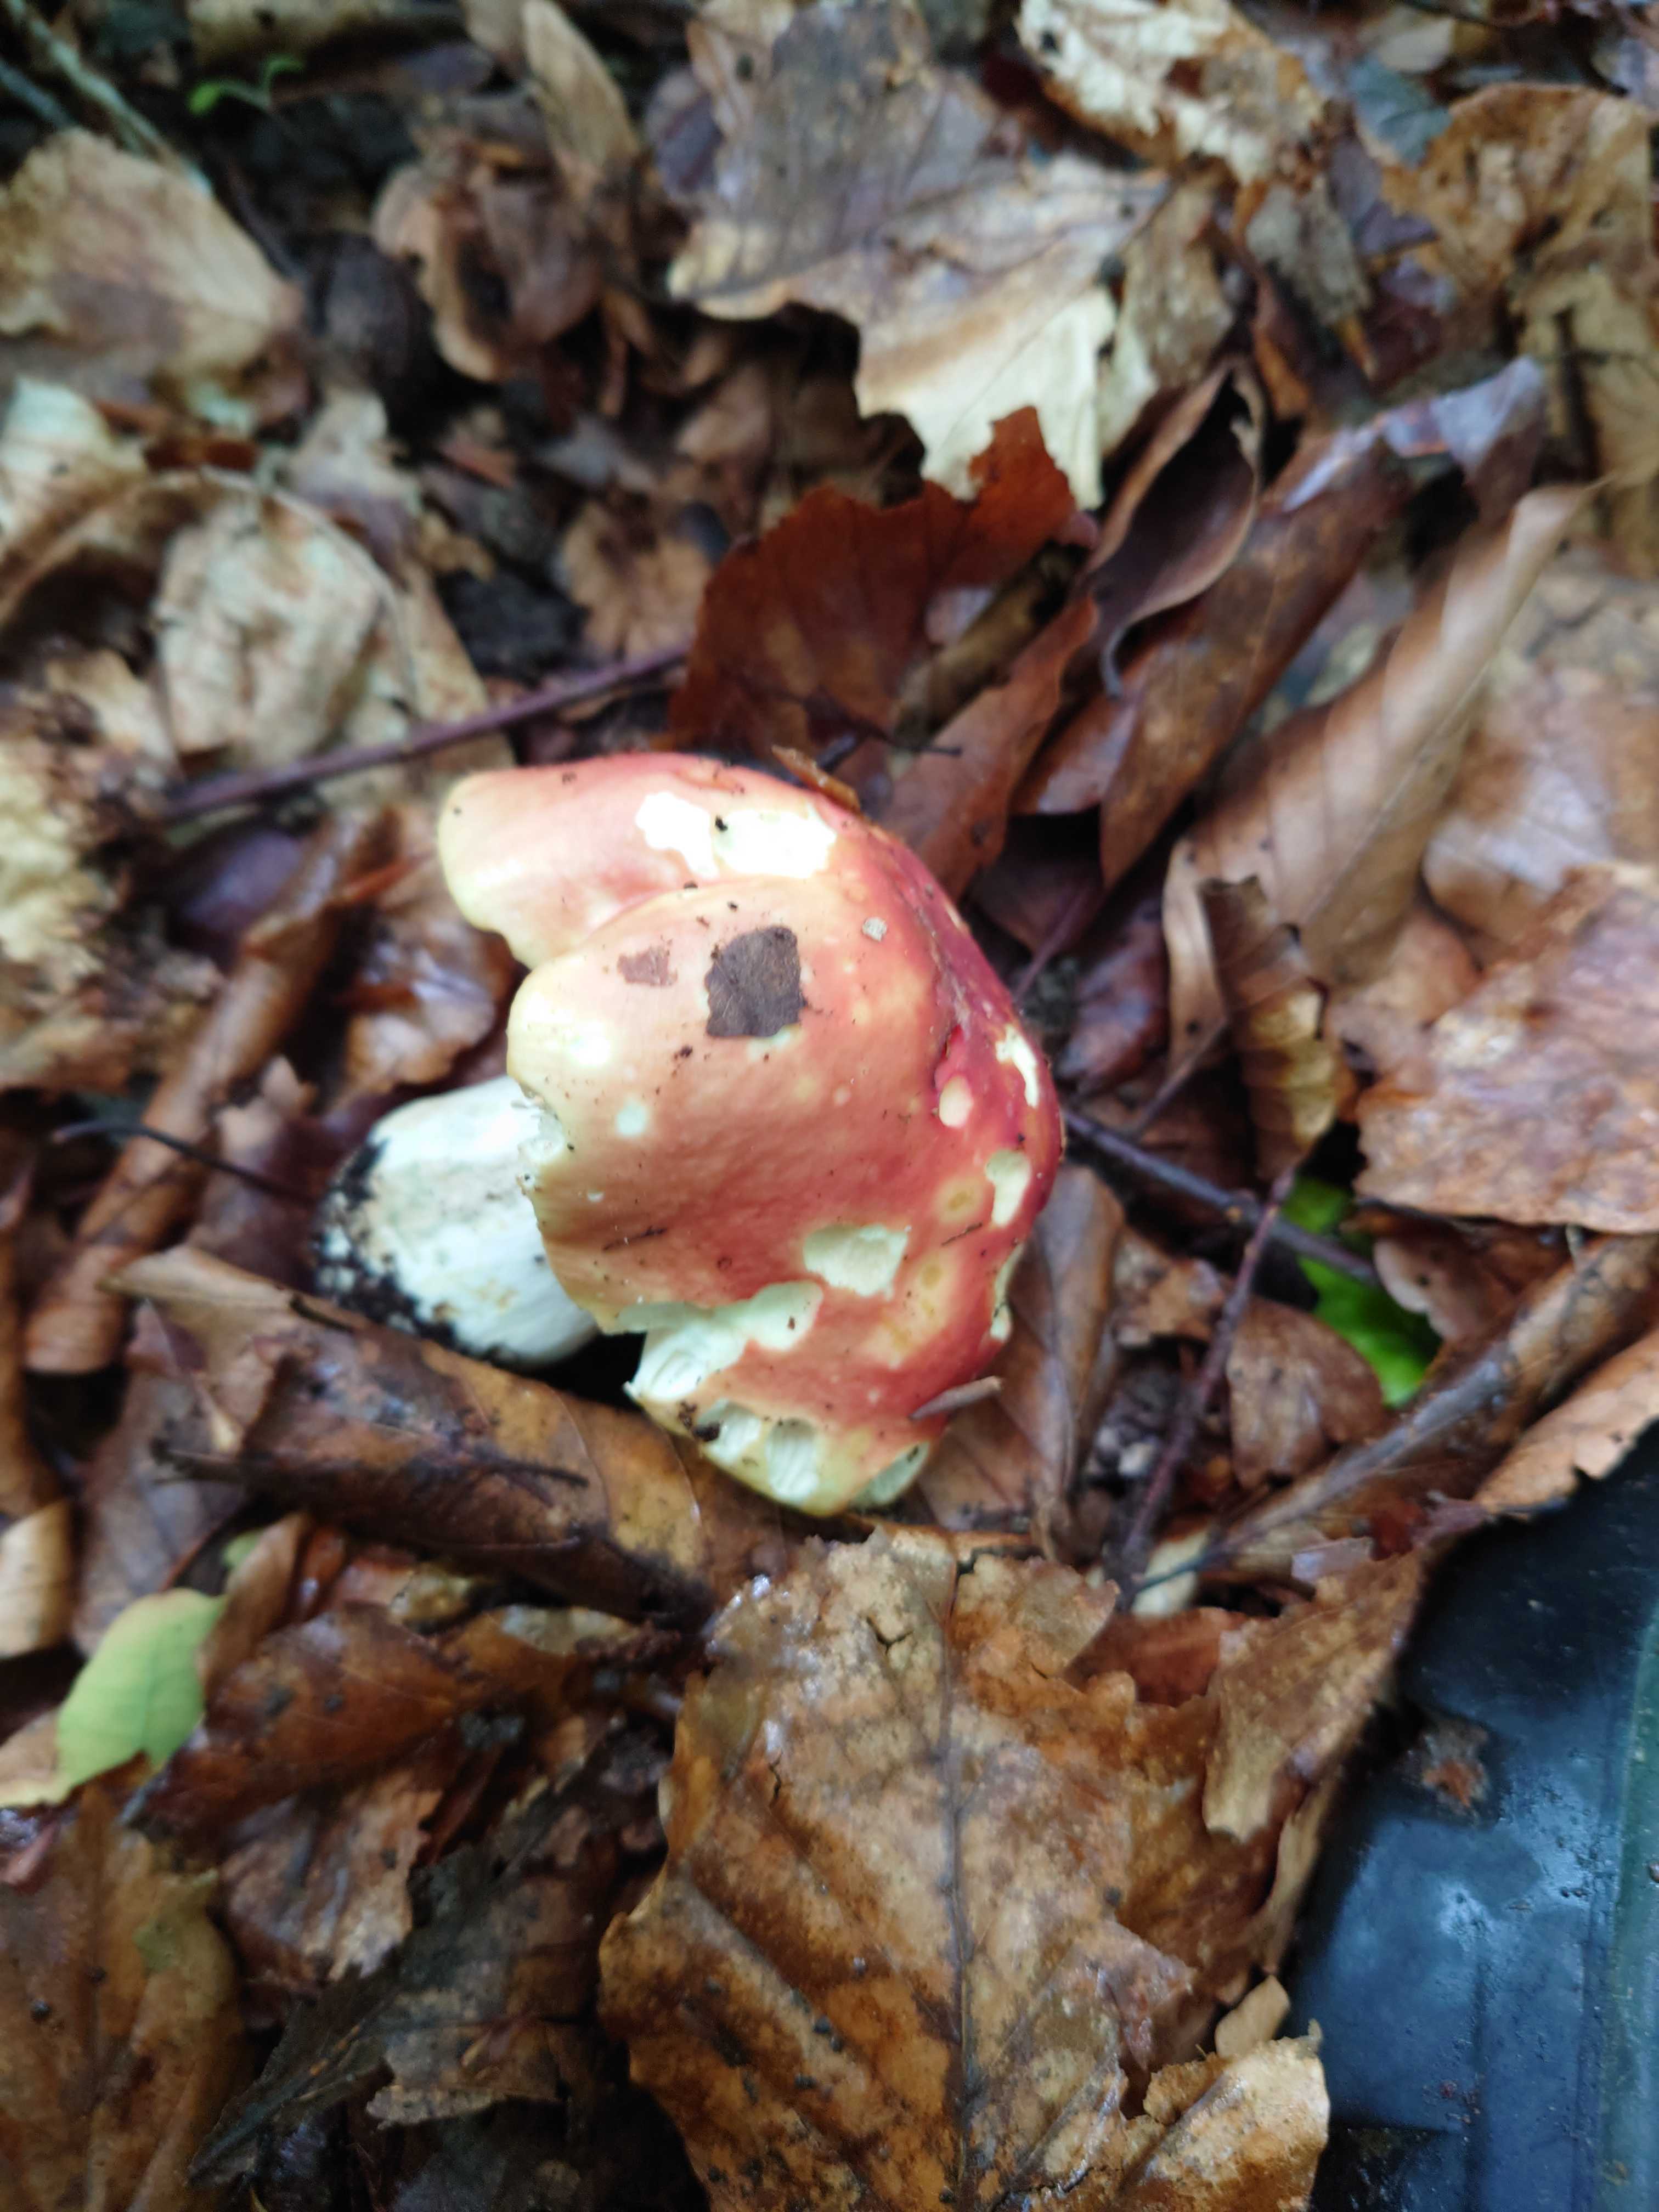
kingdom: Fungi
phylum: Basidiomycota
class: Agaricomycetes
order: Russulales
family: Russulaceae
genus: Russula
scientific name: Russula faginea
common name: bøge-skørhat
